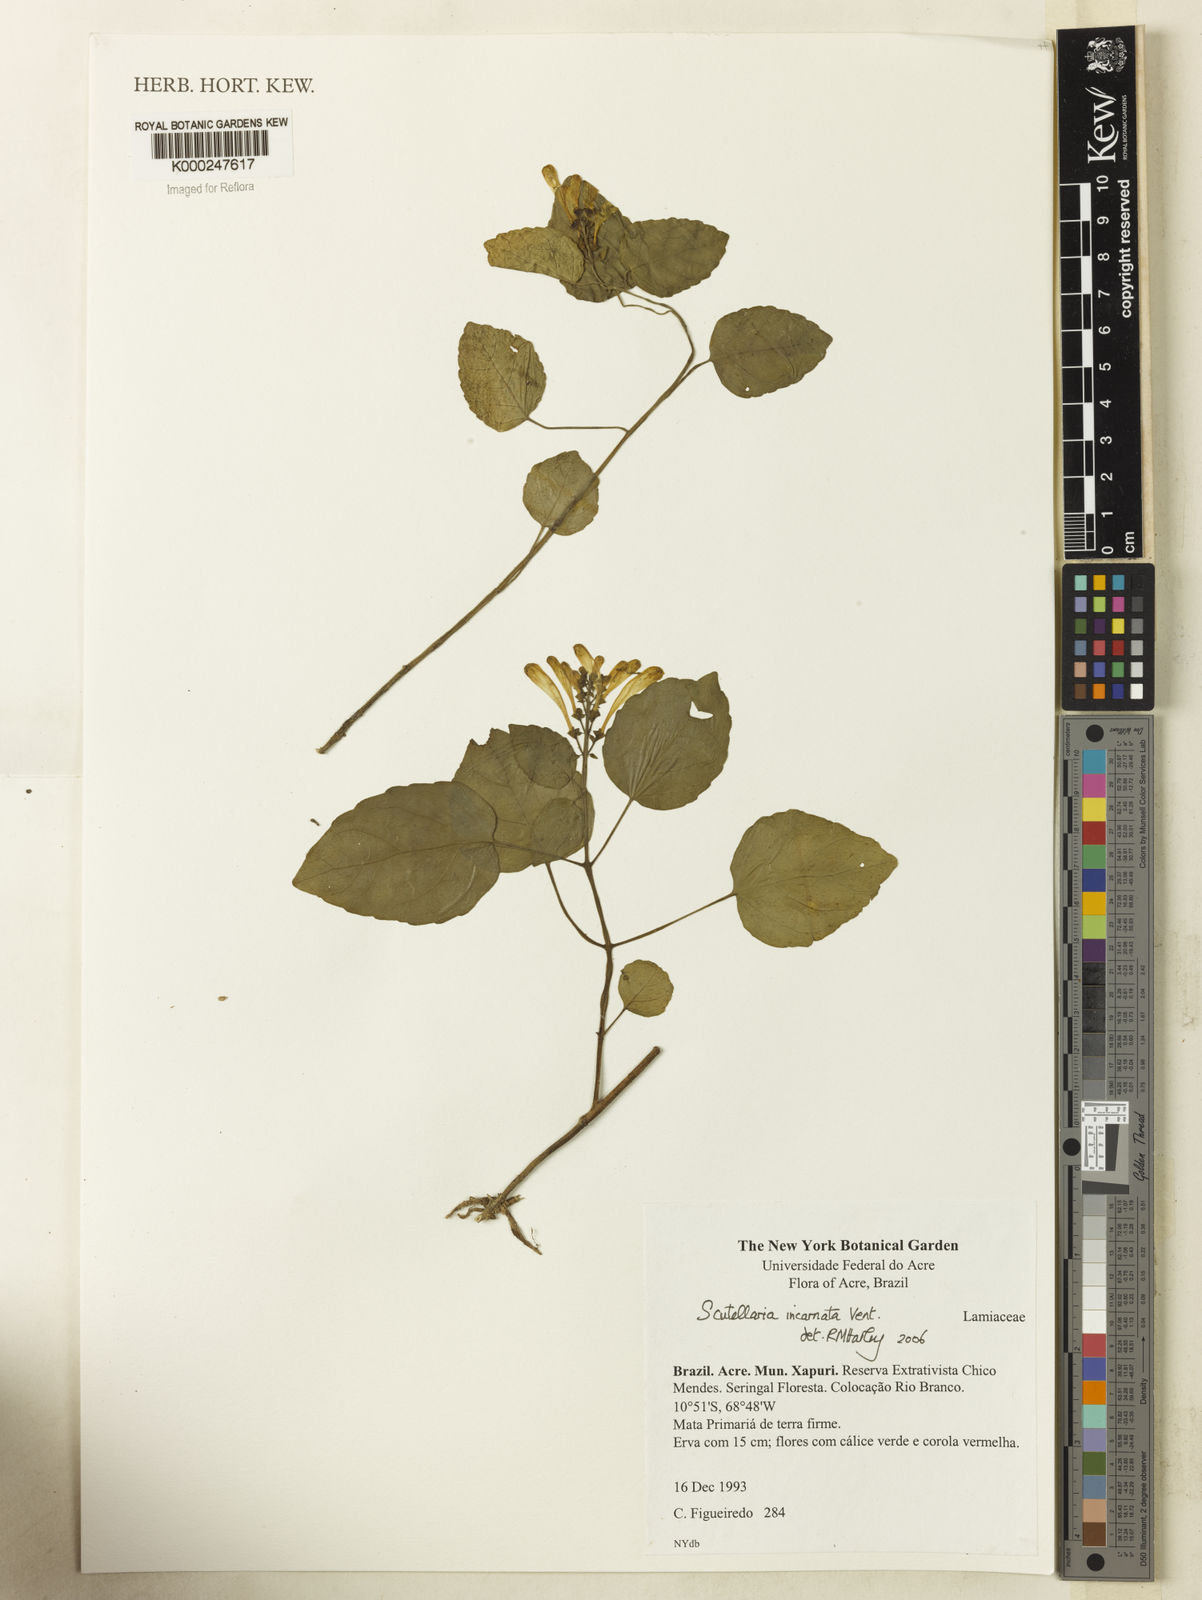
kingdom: Plantae
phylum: Tracheophyta
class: Magnoliopsida
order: Lamiales
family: Lamiaceae
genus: Scutellaria
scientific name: Scutellaria incarnata
